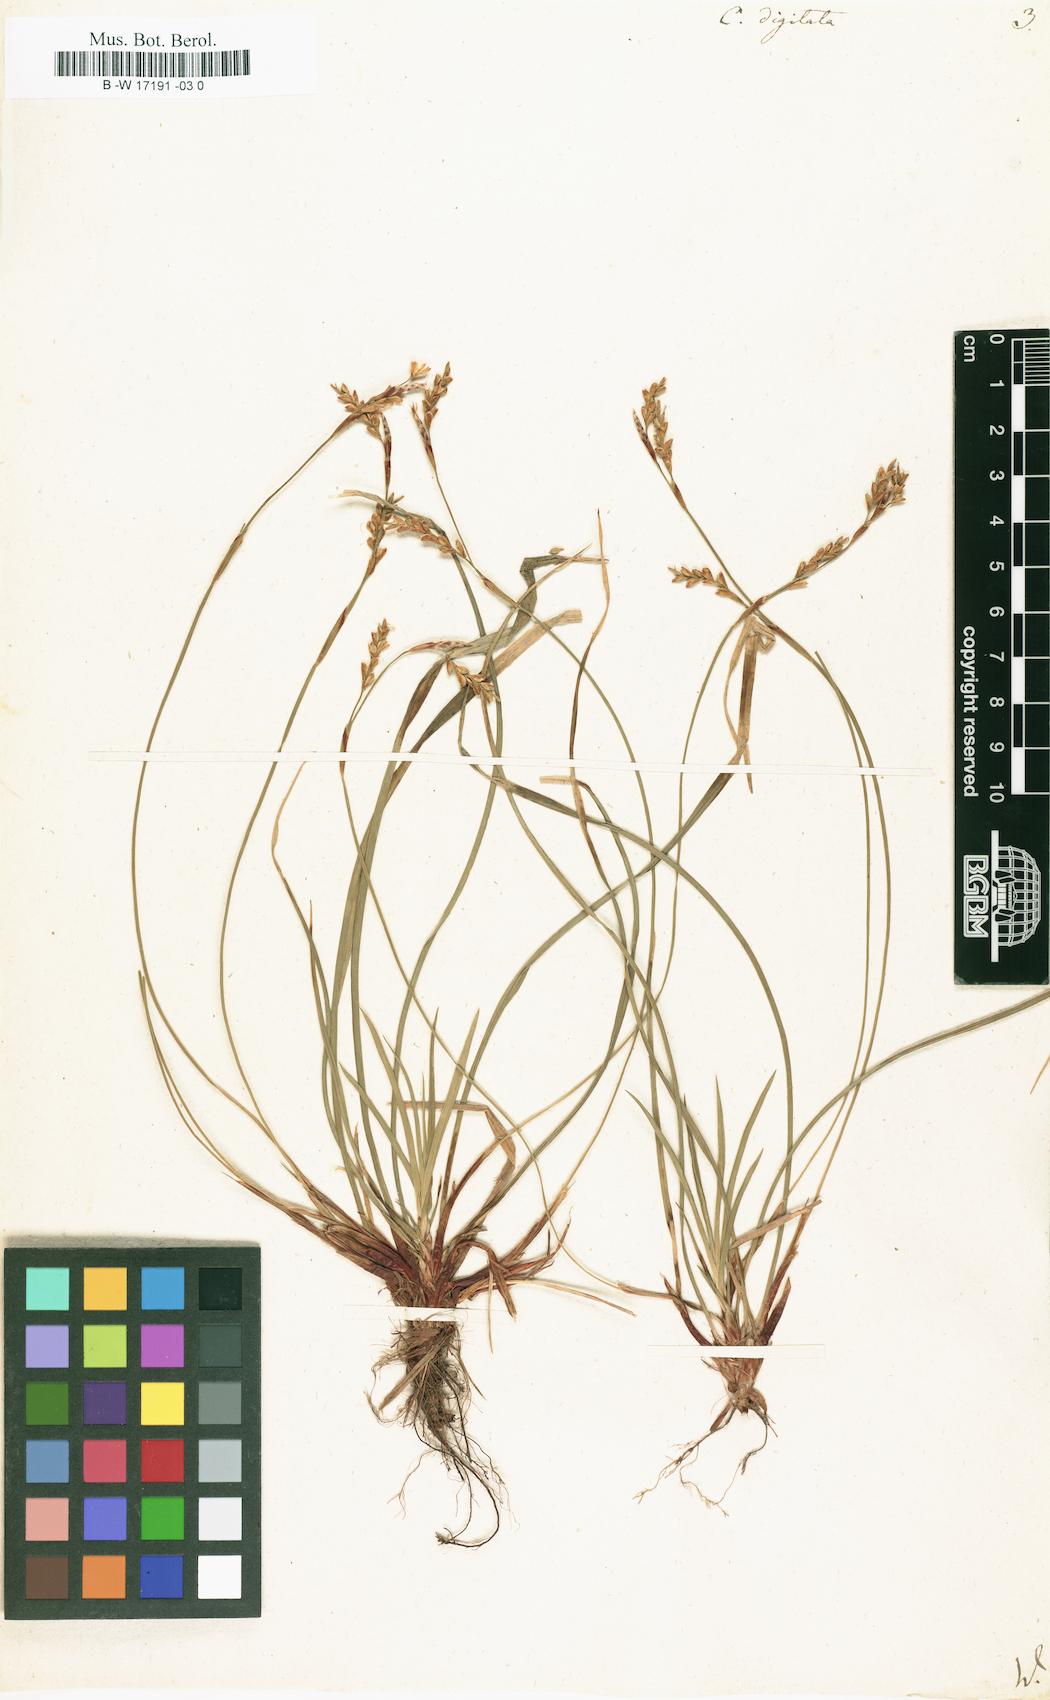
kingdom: Plantae
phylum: Tracheophyta
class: Liliopsida
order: Poales
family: Cyperaceae
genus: Carex
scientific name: Carex digitata
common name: Fingered sedge
